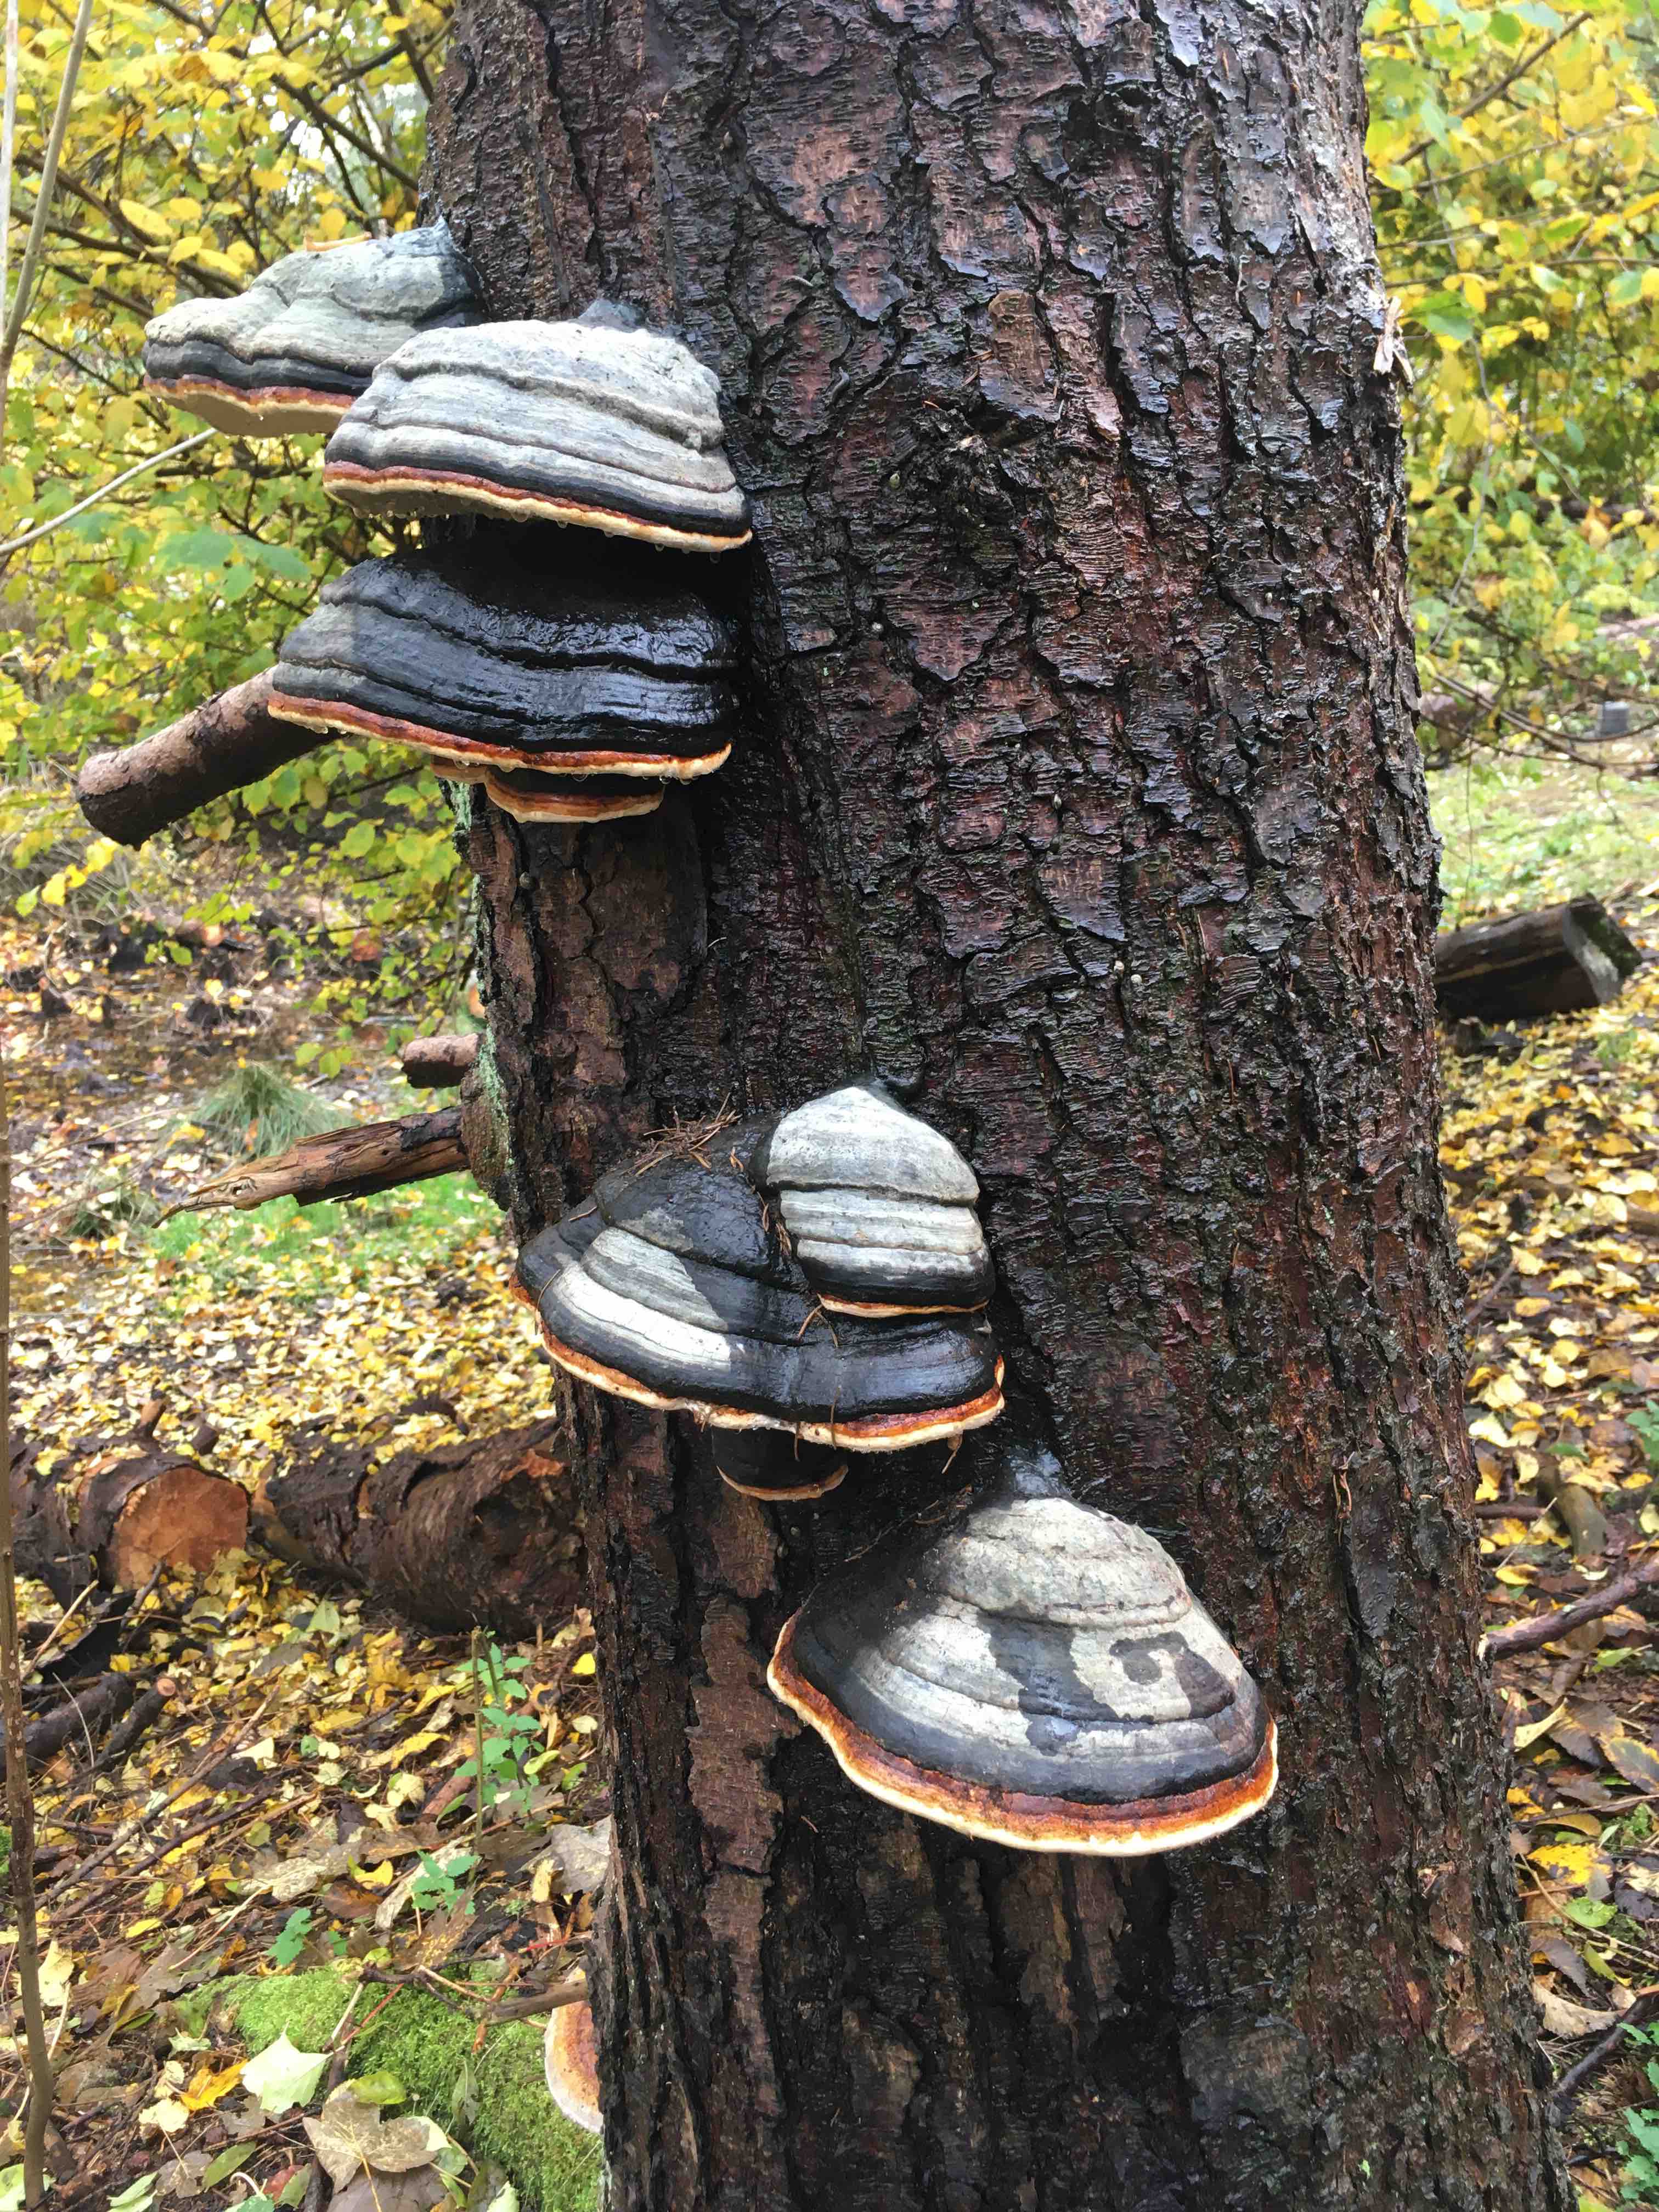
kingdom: Fungi
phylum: Basidiomycota
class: Agaricomycetes
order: Polyporales
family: Fomitopsidaceae
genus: Fomitopsis
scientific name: Fomitopsis pinicola
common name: randbæltet hovporesvamp
